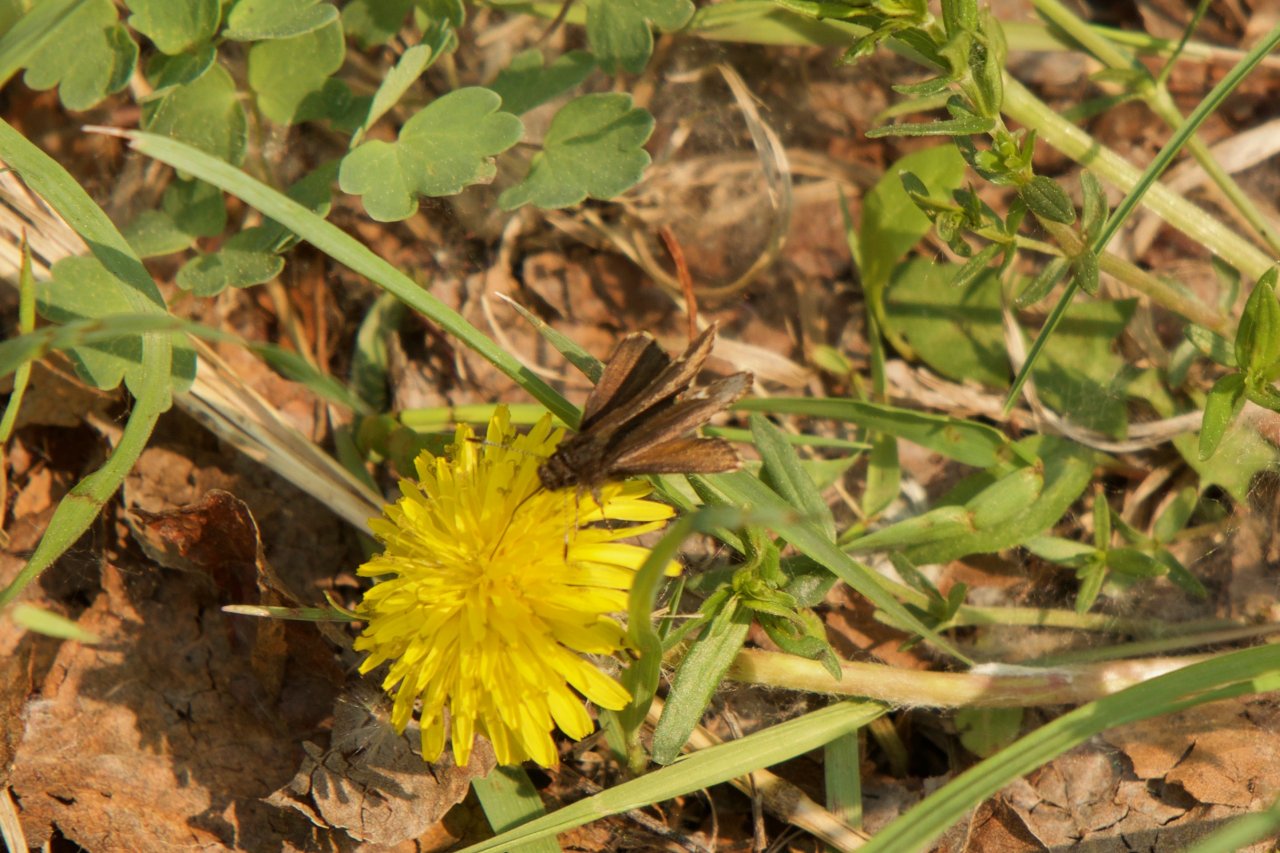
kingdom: Animalia
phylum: Arthropoda
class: Insecta
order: Lepidoptera
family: Hesperiidae
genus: Mastor
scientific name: Mastor vialis
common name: Common Roadside-Skipper
